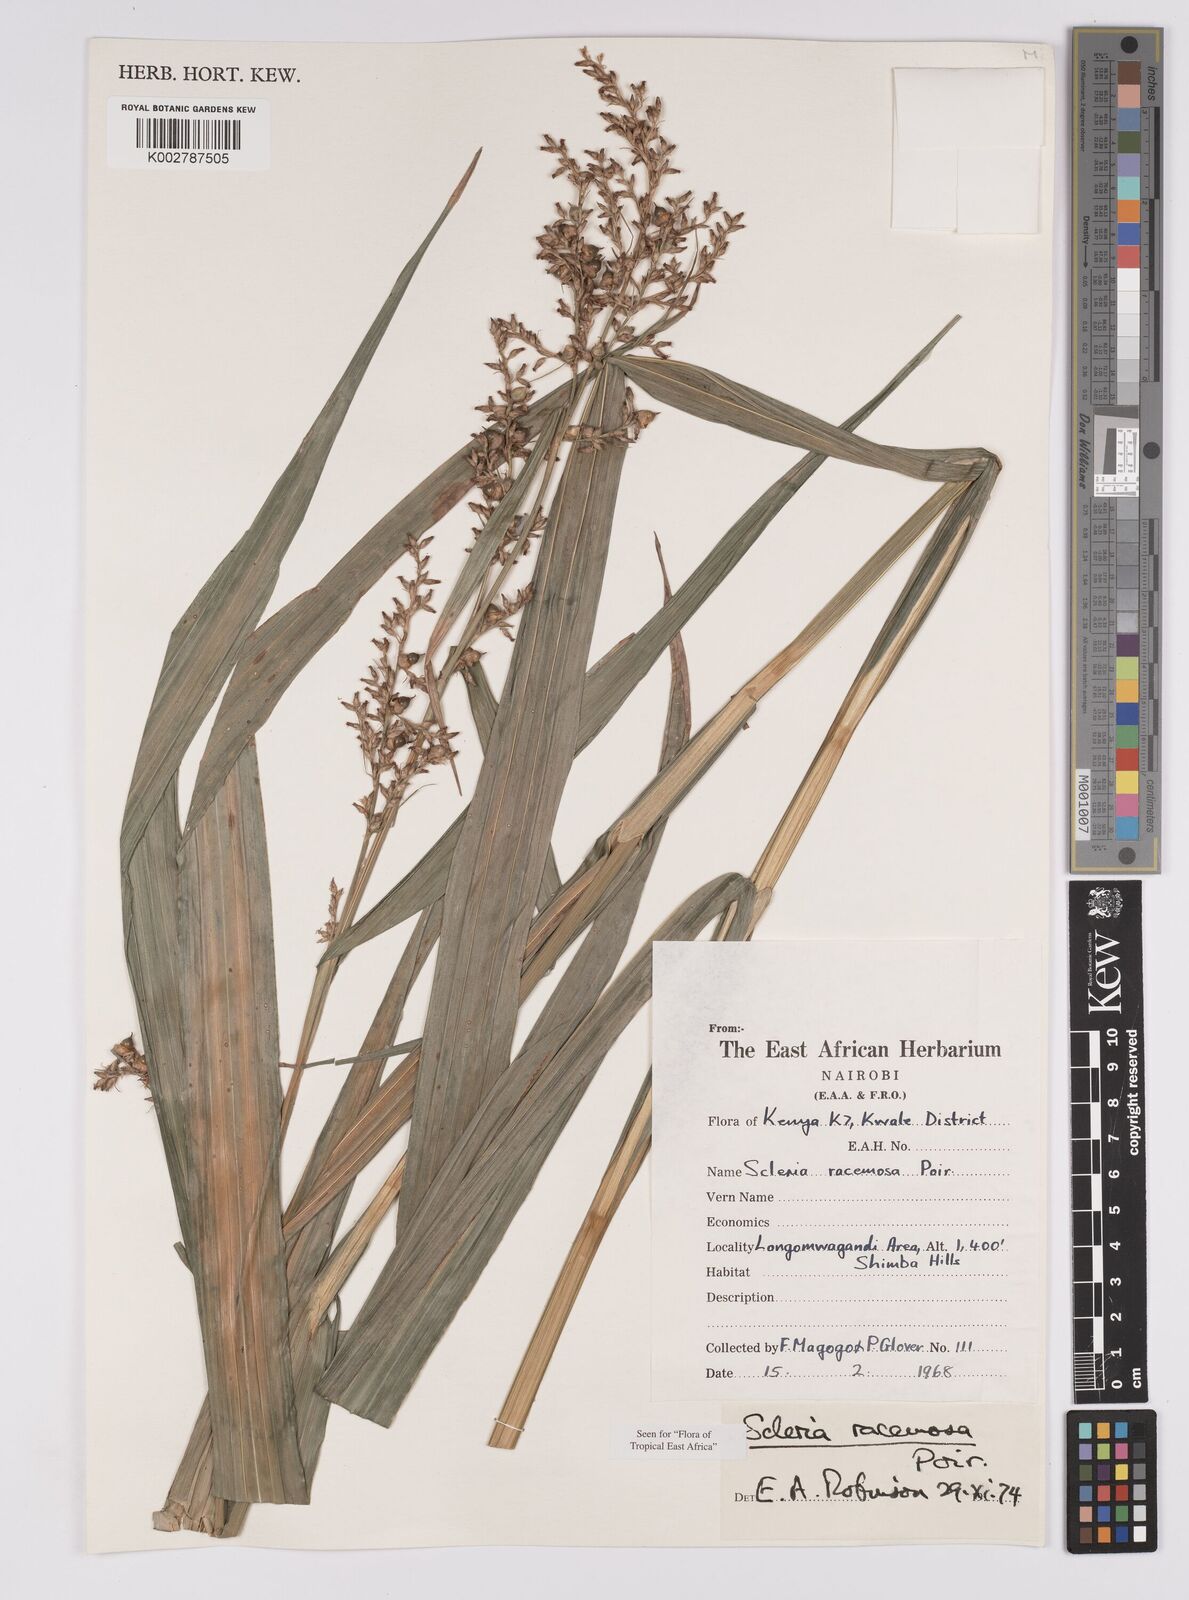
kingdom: Plantae
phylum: Tracheophyta
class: Liliopsida
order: Poales
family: Cyperaceae
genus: Scleria
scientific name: Scleria racemosa
